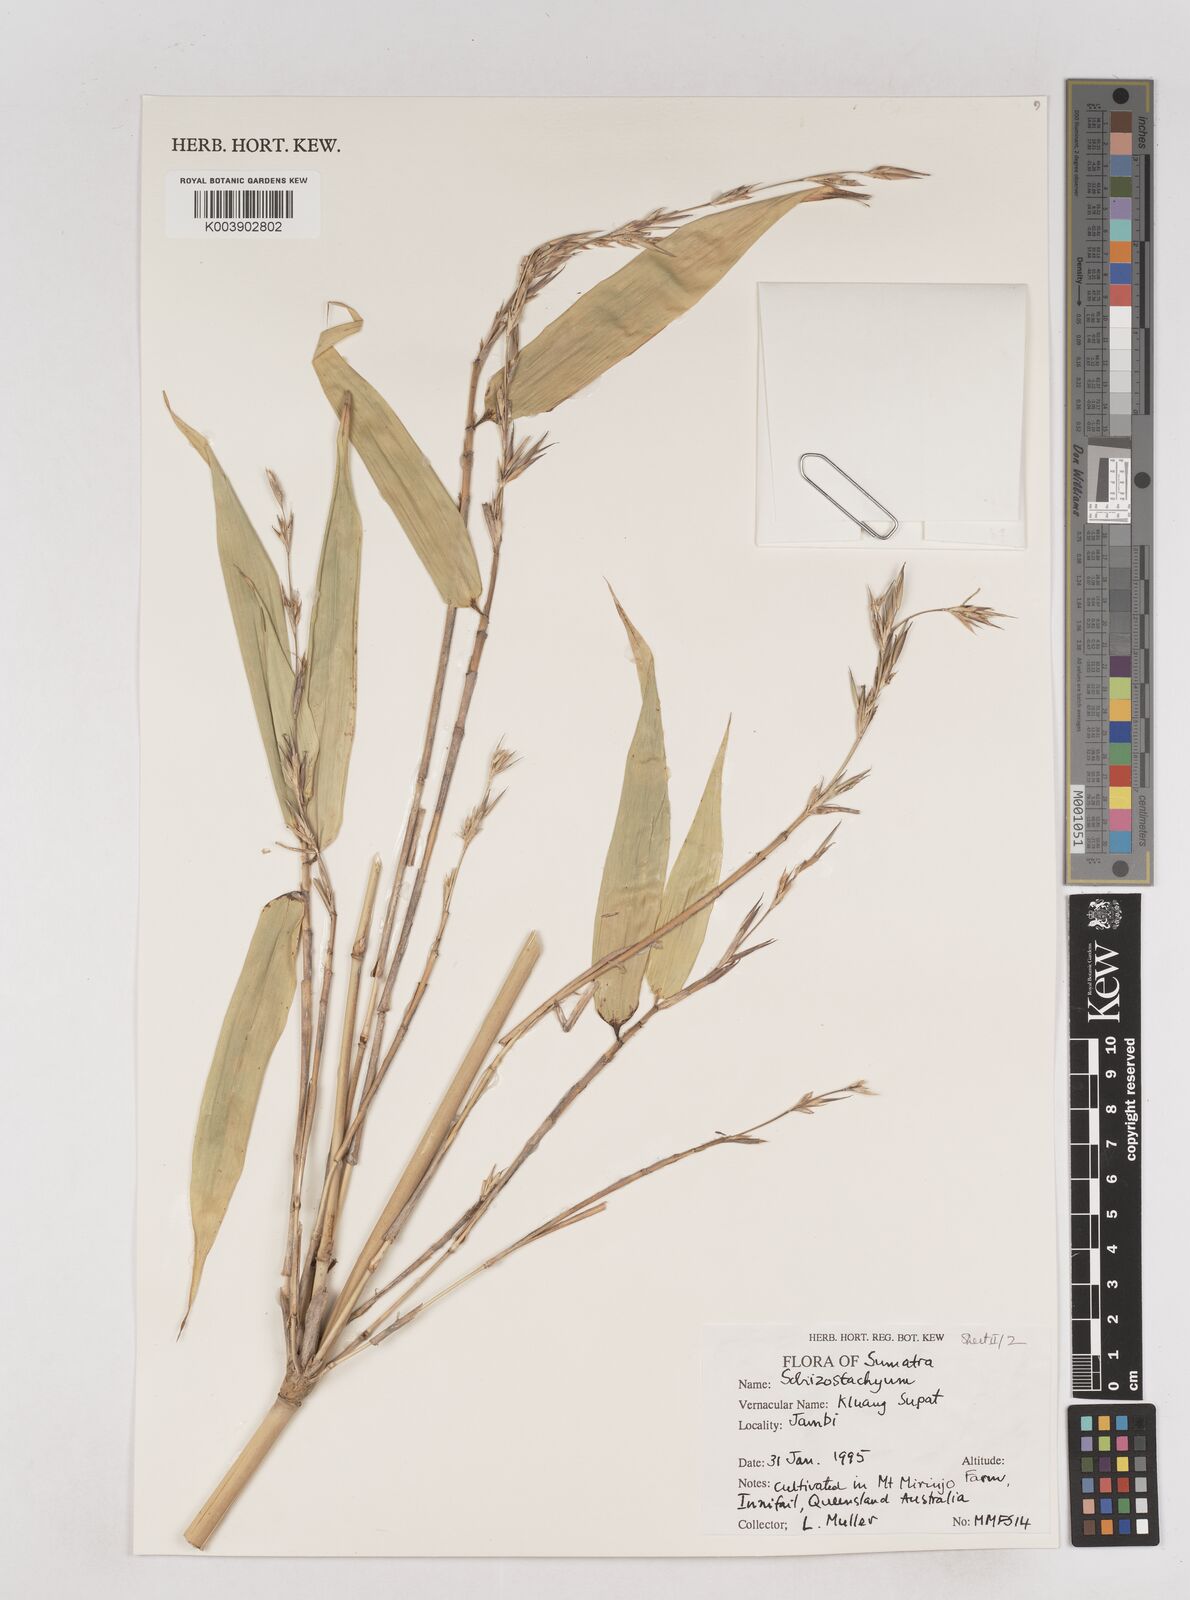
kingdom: Plantae
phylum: Tracheophyta
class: Liliopsida
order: Poales
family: Poaceae
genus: Schizostachyum
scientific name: Schizostachyum
